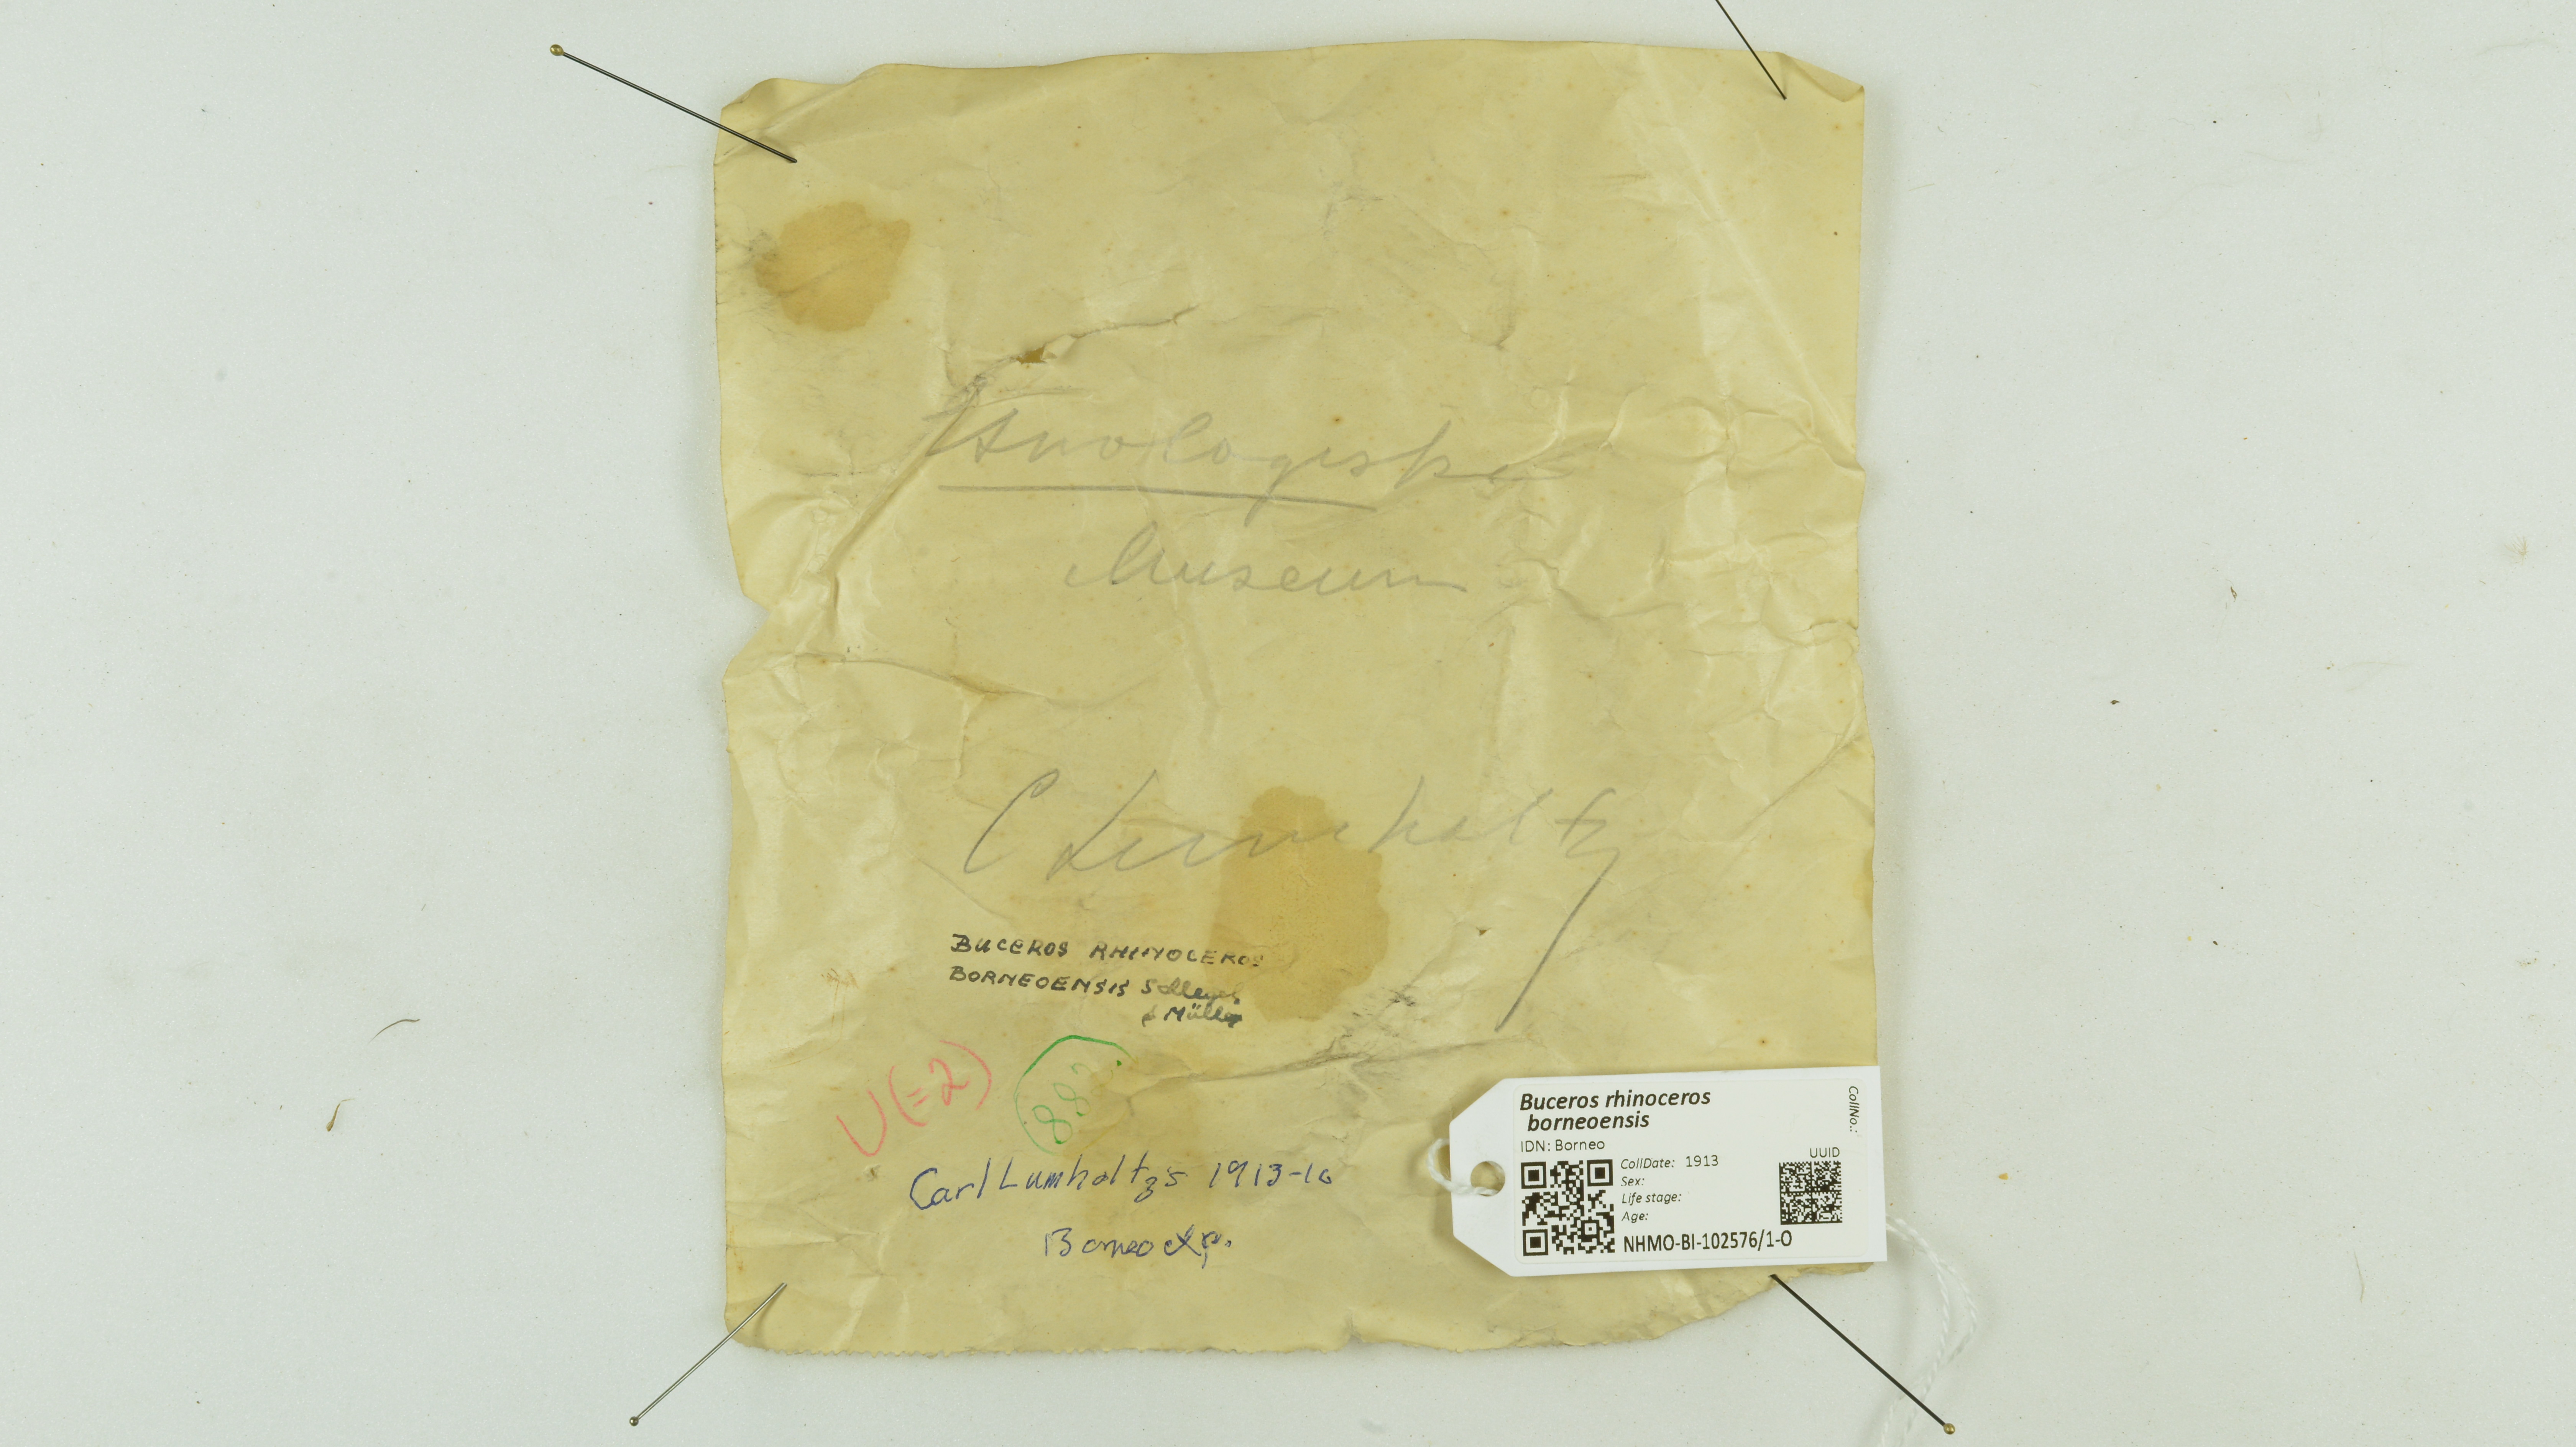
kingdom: Animalia
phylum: Chordata
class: Aves
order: Bucerotiformes
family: Bucerotidae
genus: Buceros
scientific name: Buceros rhinoceros
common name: Rhinoceros hornbill
